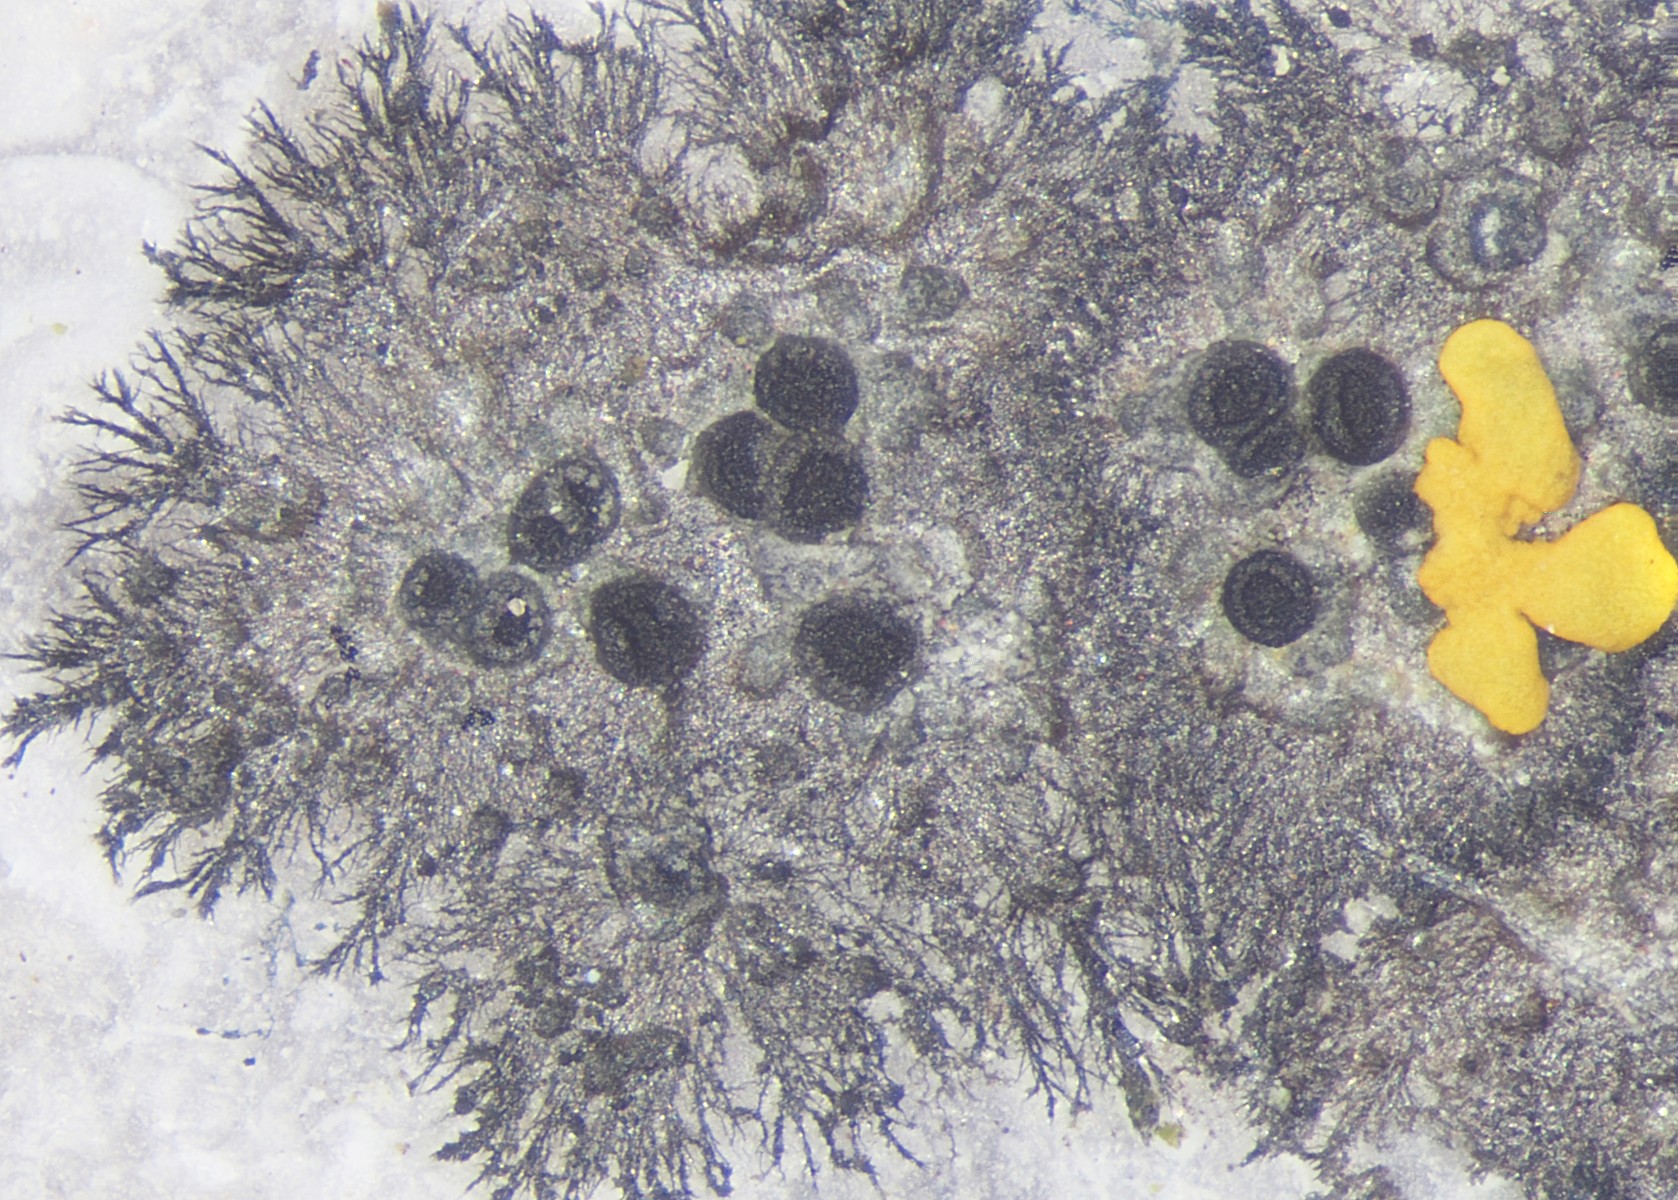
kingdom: Fungi
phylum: Ascomycota
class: Lecanoromycetes
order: Caliciales
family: Physciaceae
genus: Rinodina
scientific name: Rinodina oleae
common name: kyst-knaplav
